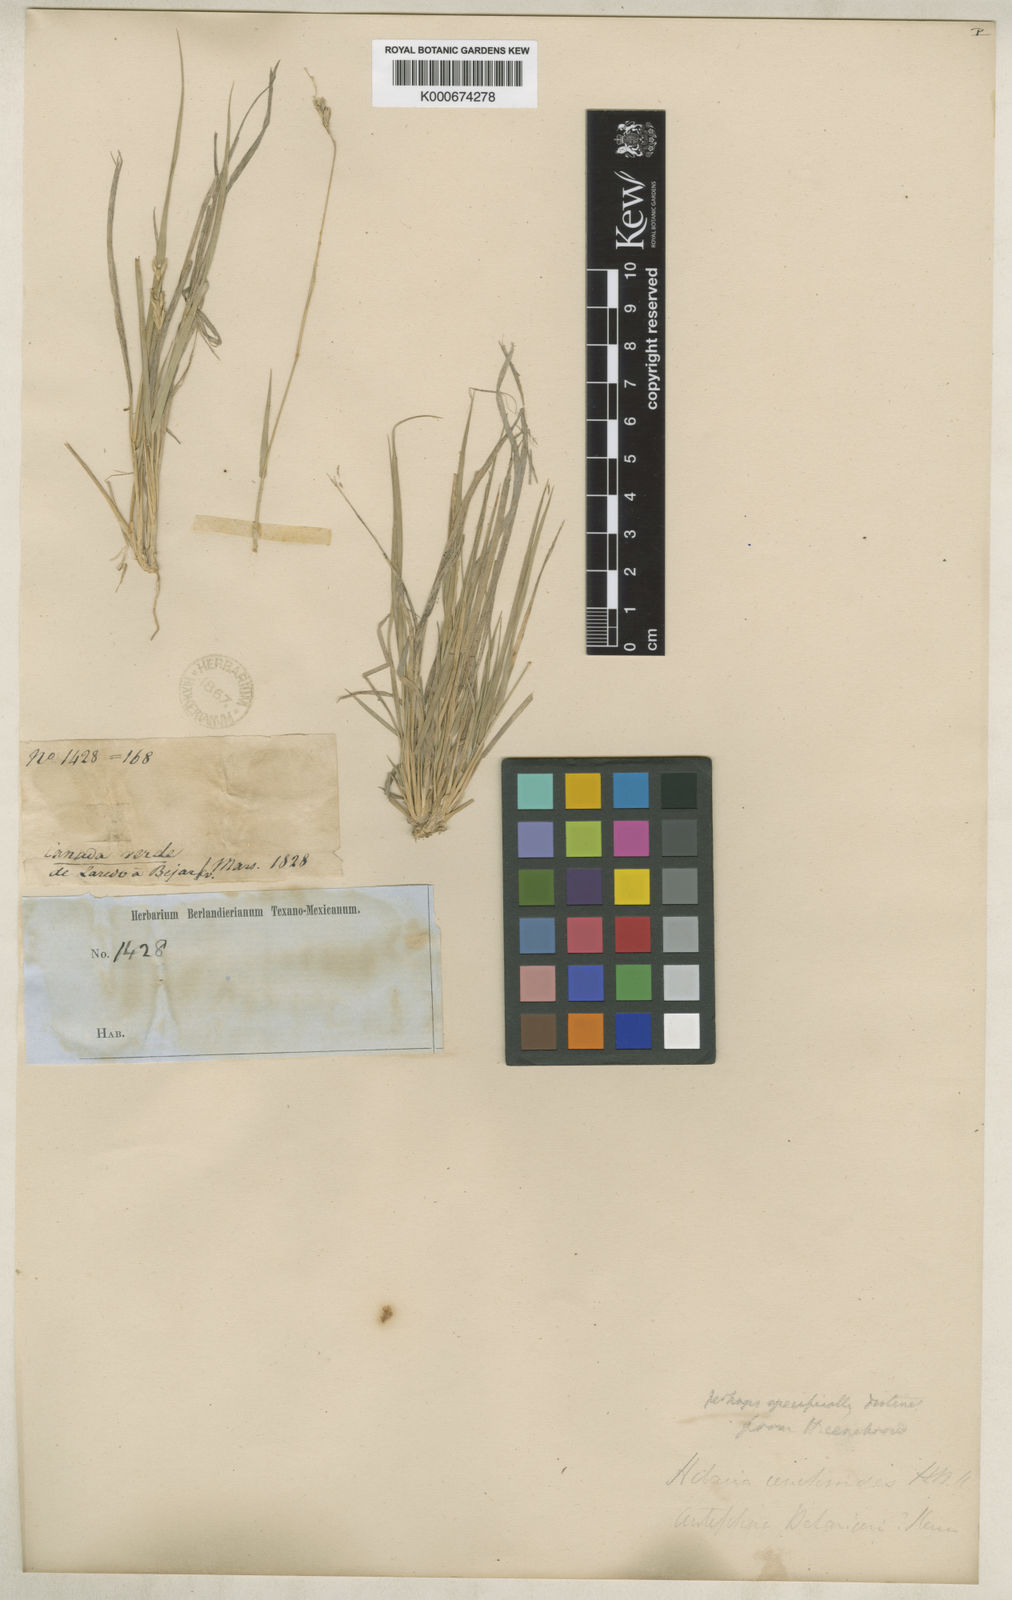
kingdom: Plantae
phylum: Tracheophyta
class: Liliopsida
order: Poales
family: Poaceae
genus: Hilaria
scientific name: Hilaria belangeri
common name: Curly-mesquite
